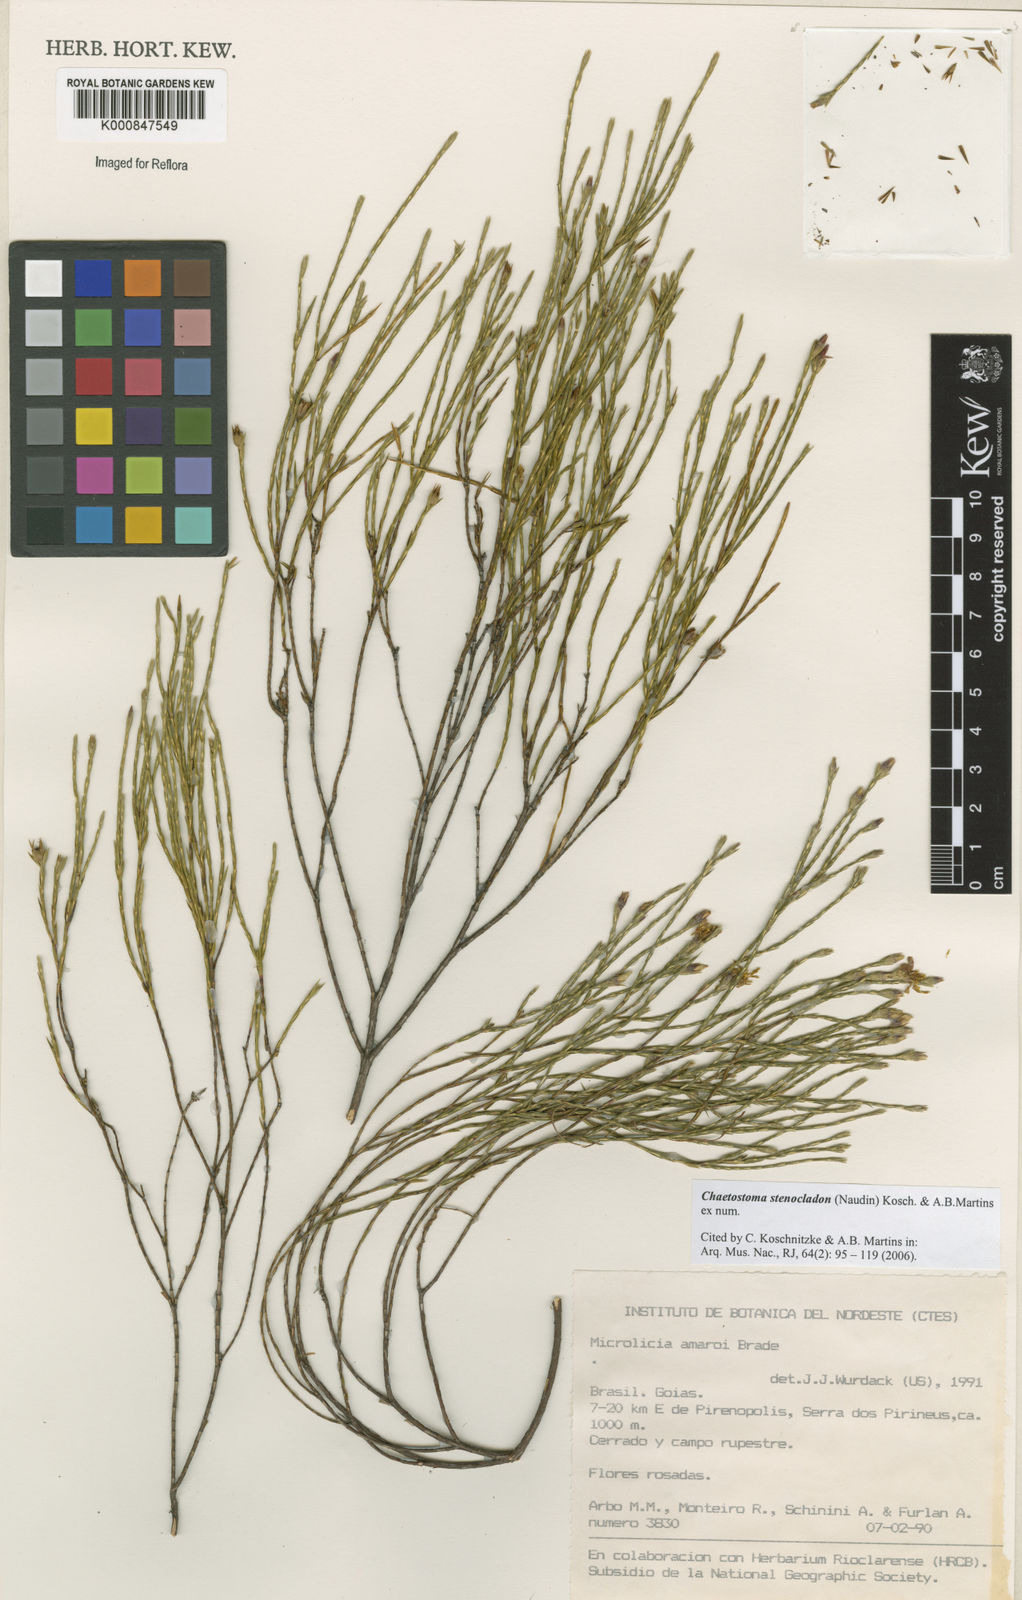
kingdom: Plantae
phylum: Tracheophyta
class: Magnoliopsida
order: Myrtales
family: Melastomataceae
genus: Microlicia
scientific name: Microlicia stenocladon
